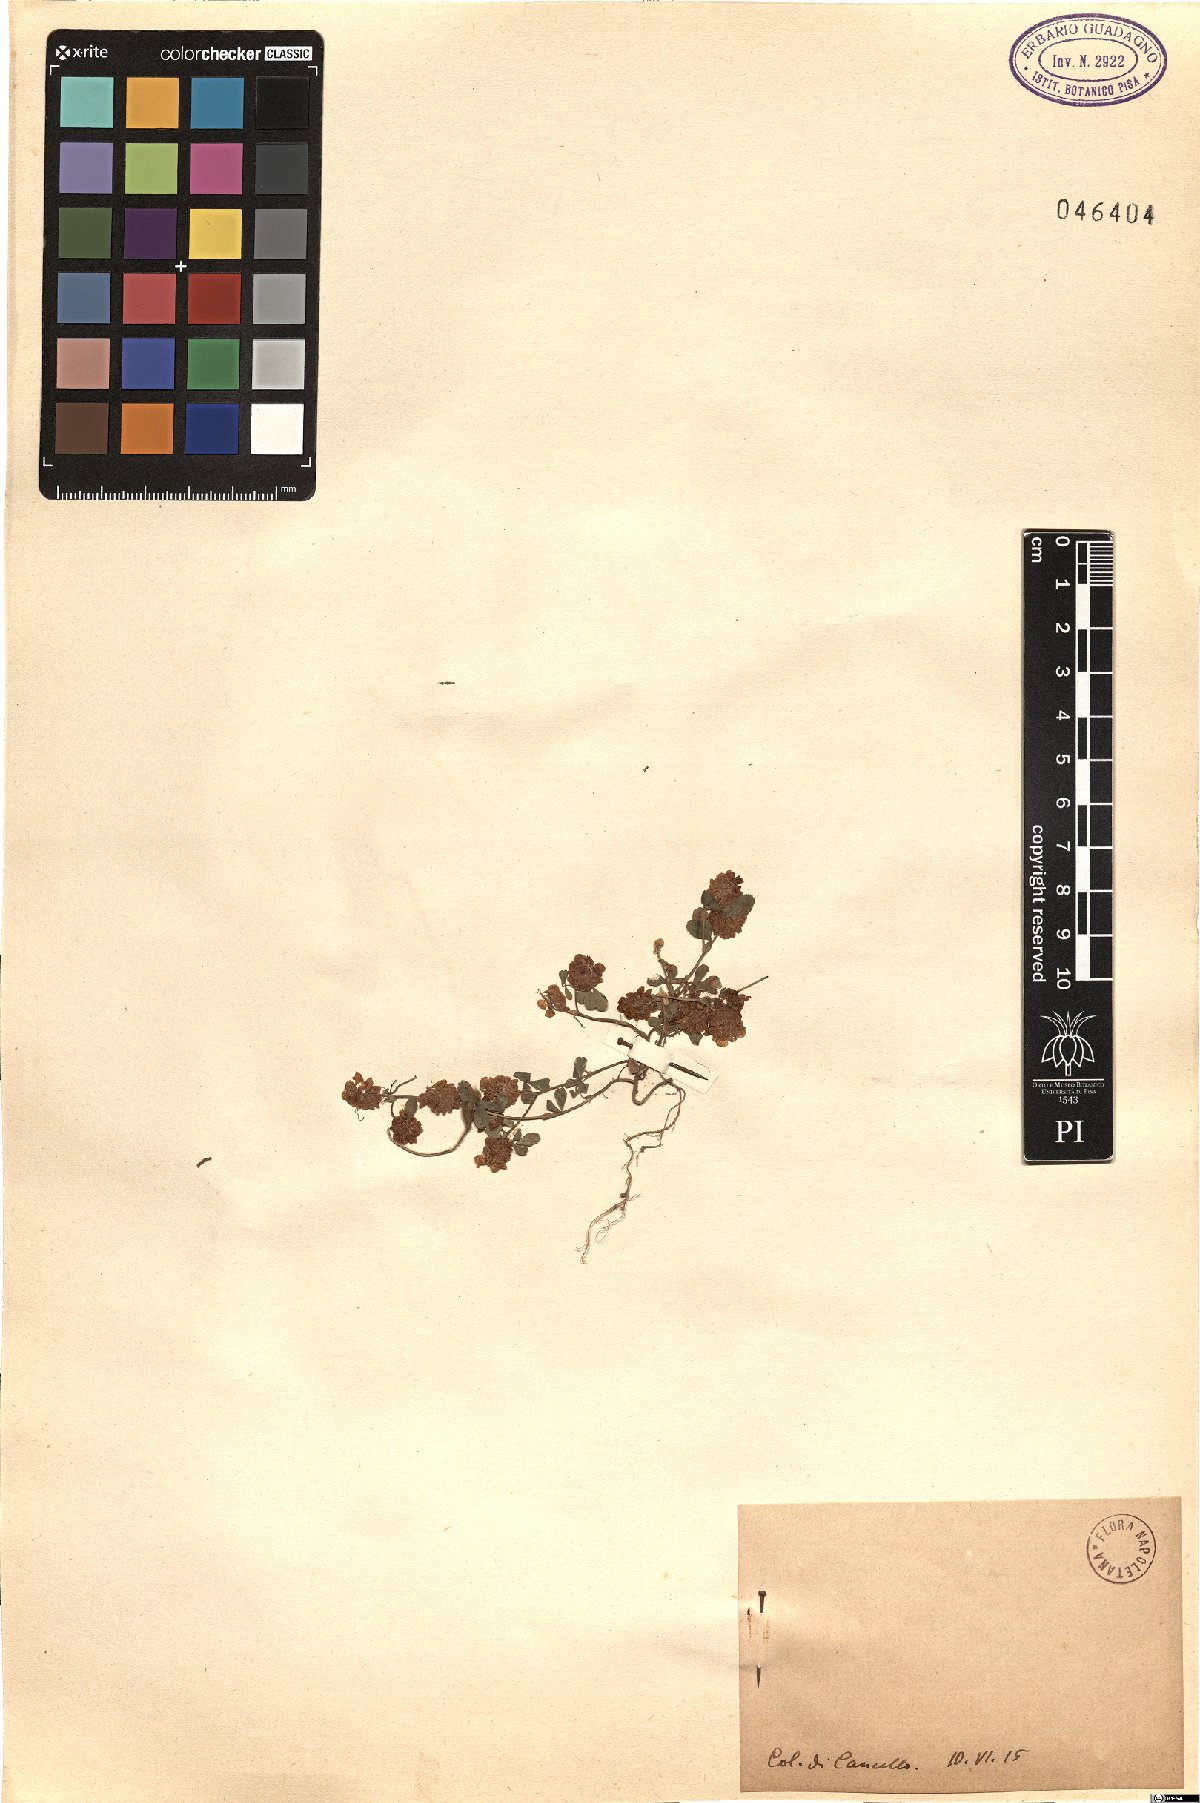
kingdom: Plantae
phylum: Tracheophyta
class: Magnoliopsida
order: Fabales
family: Fabaceae
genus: Trifolium
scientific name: Trifolium
